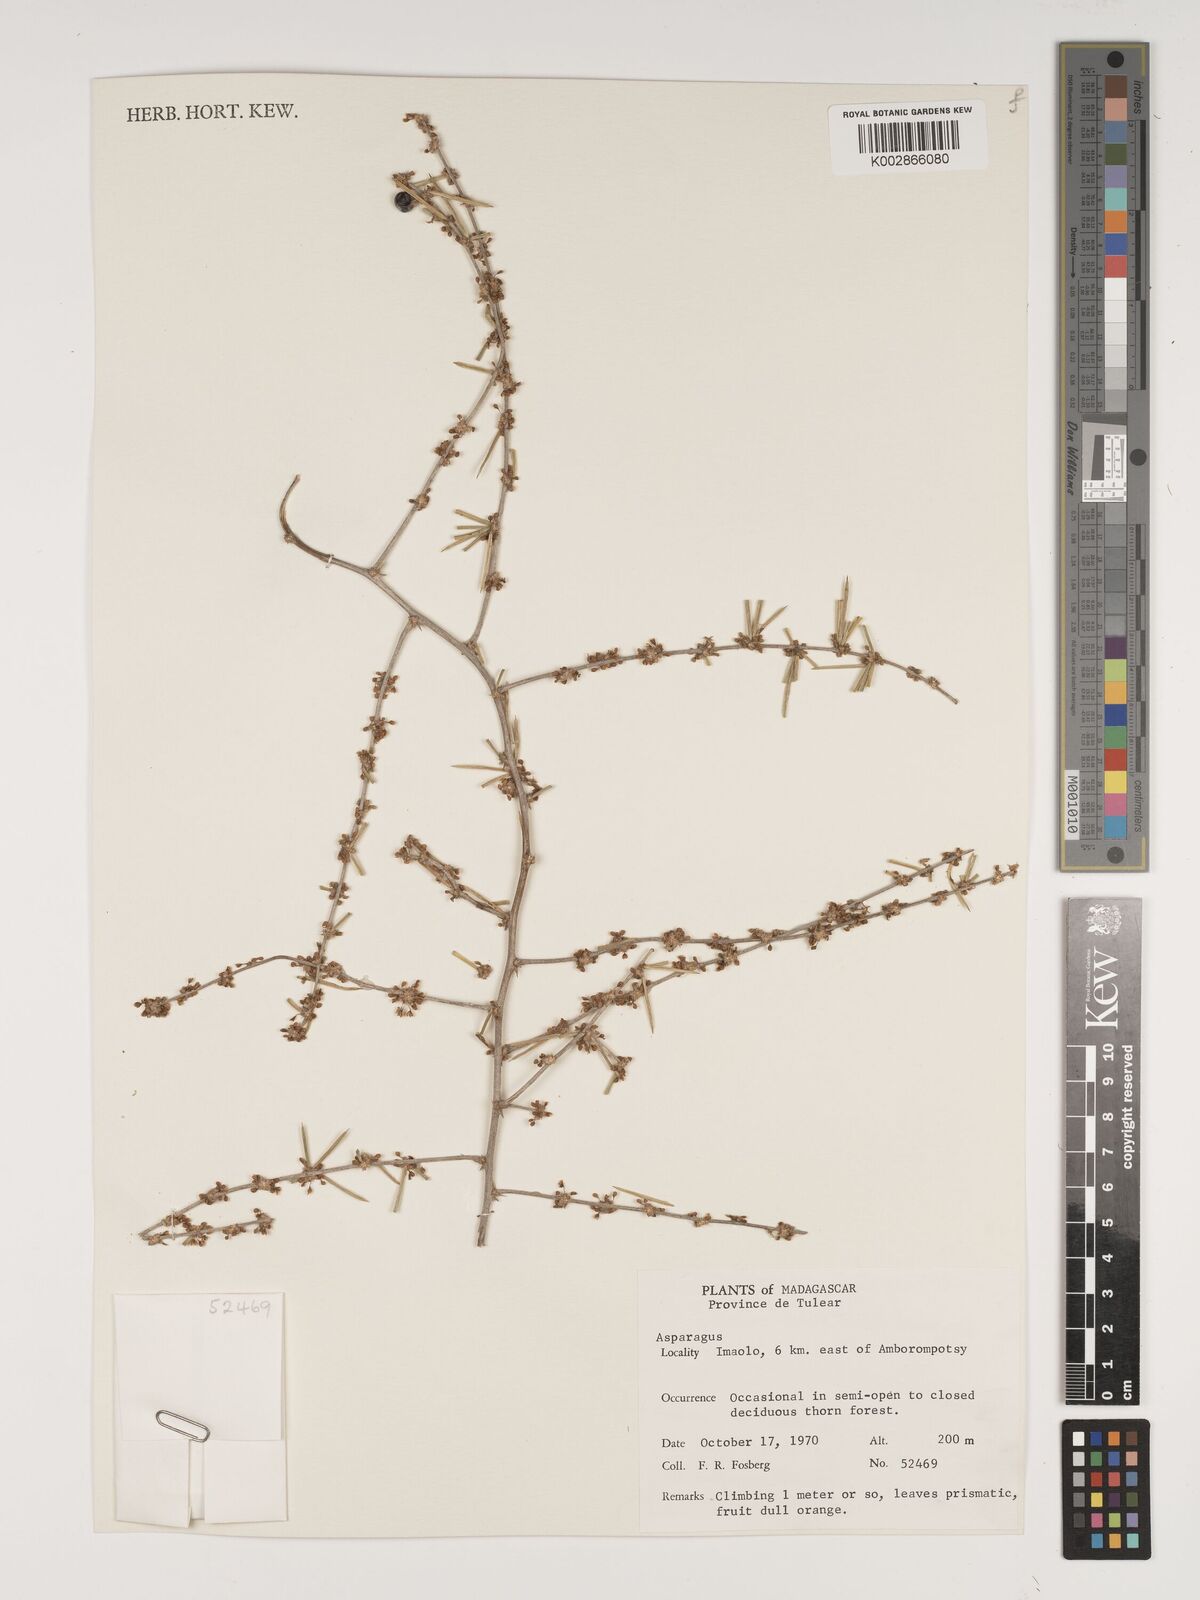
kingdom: Plantae
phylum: Tracheophyta
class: Liliopsida
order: Asparagales
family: Asparagaceae
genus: Asparagus
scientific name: Asparagus schumanianus
